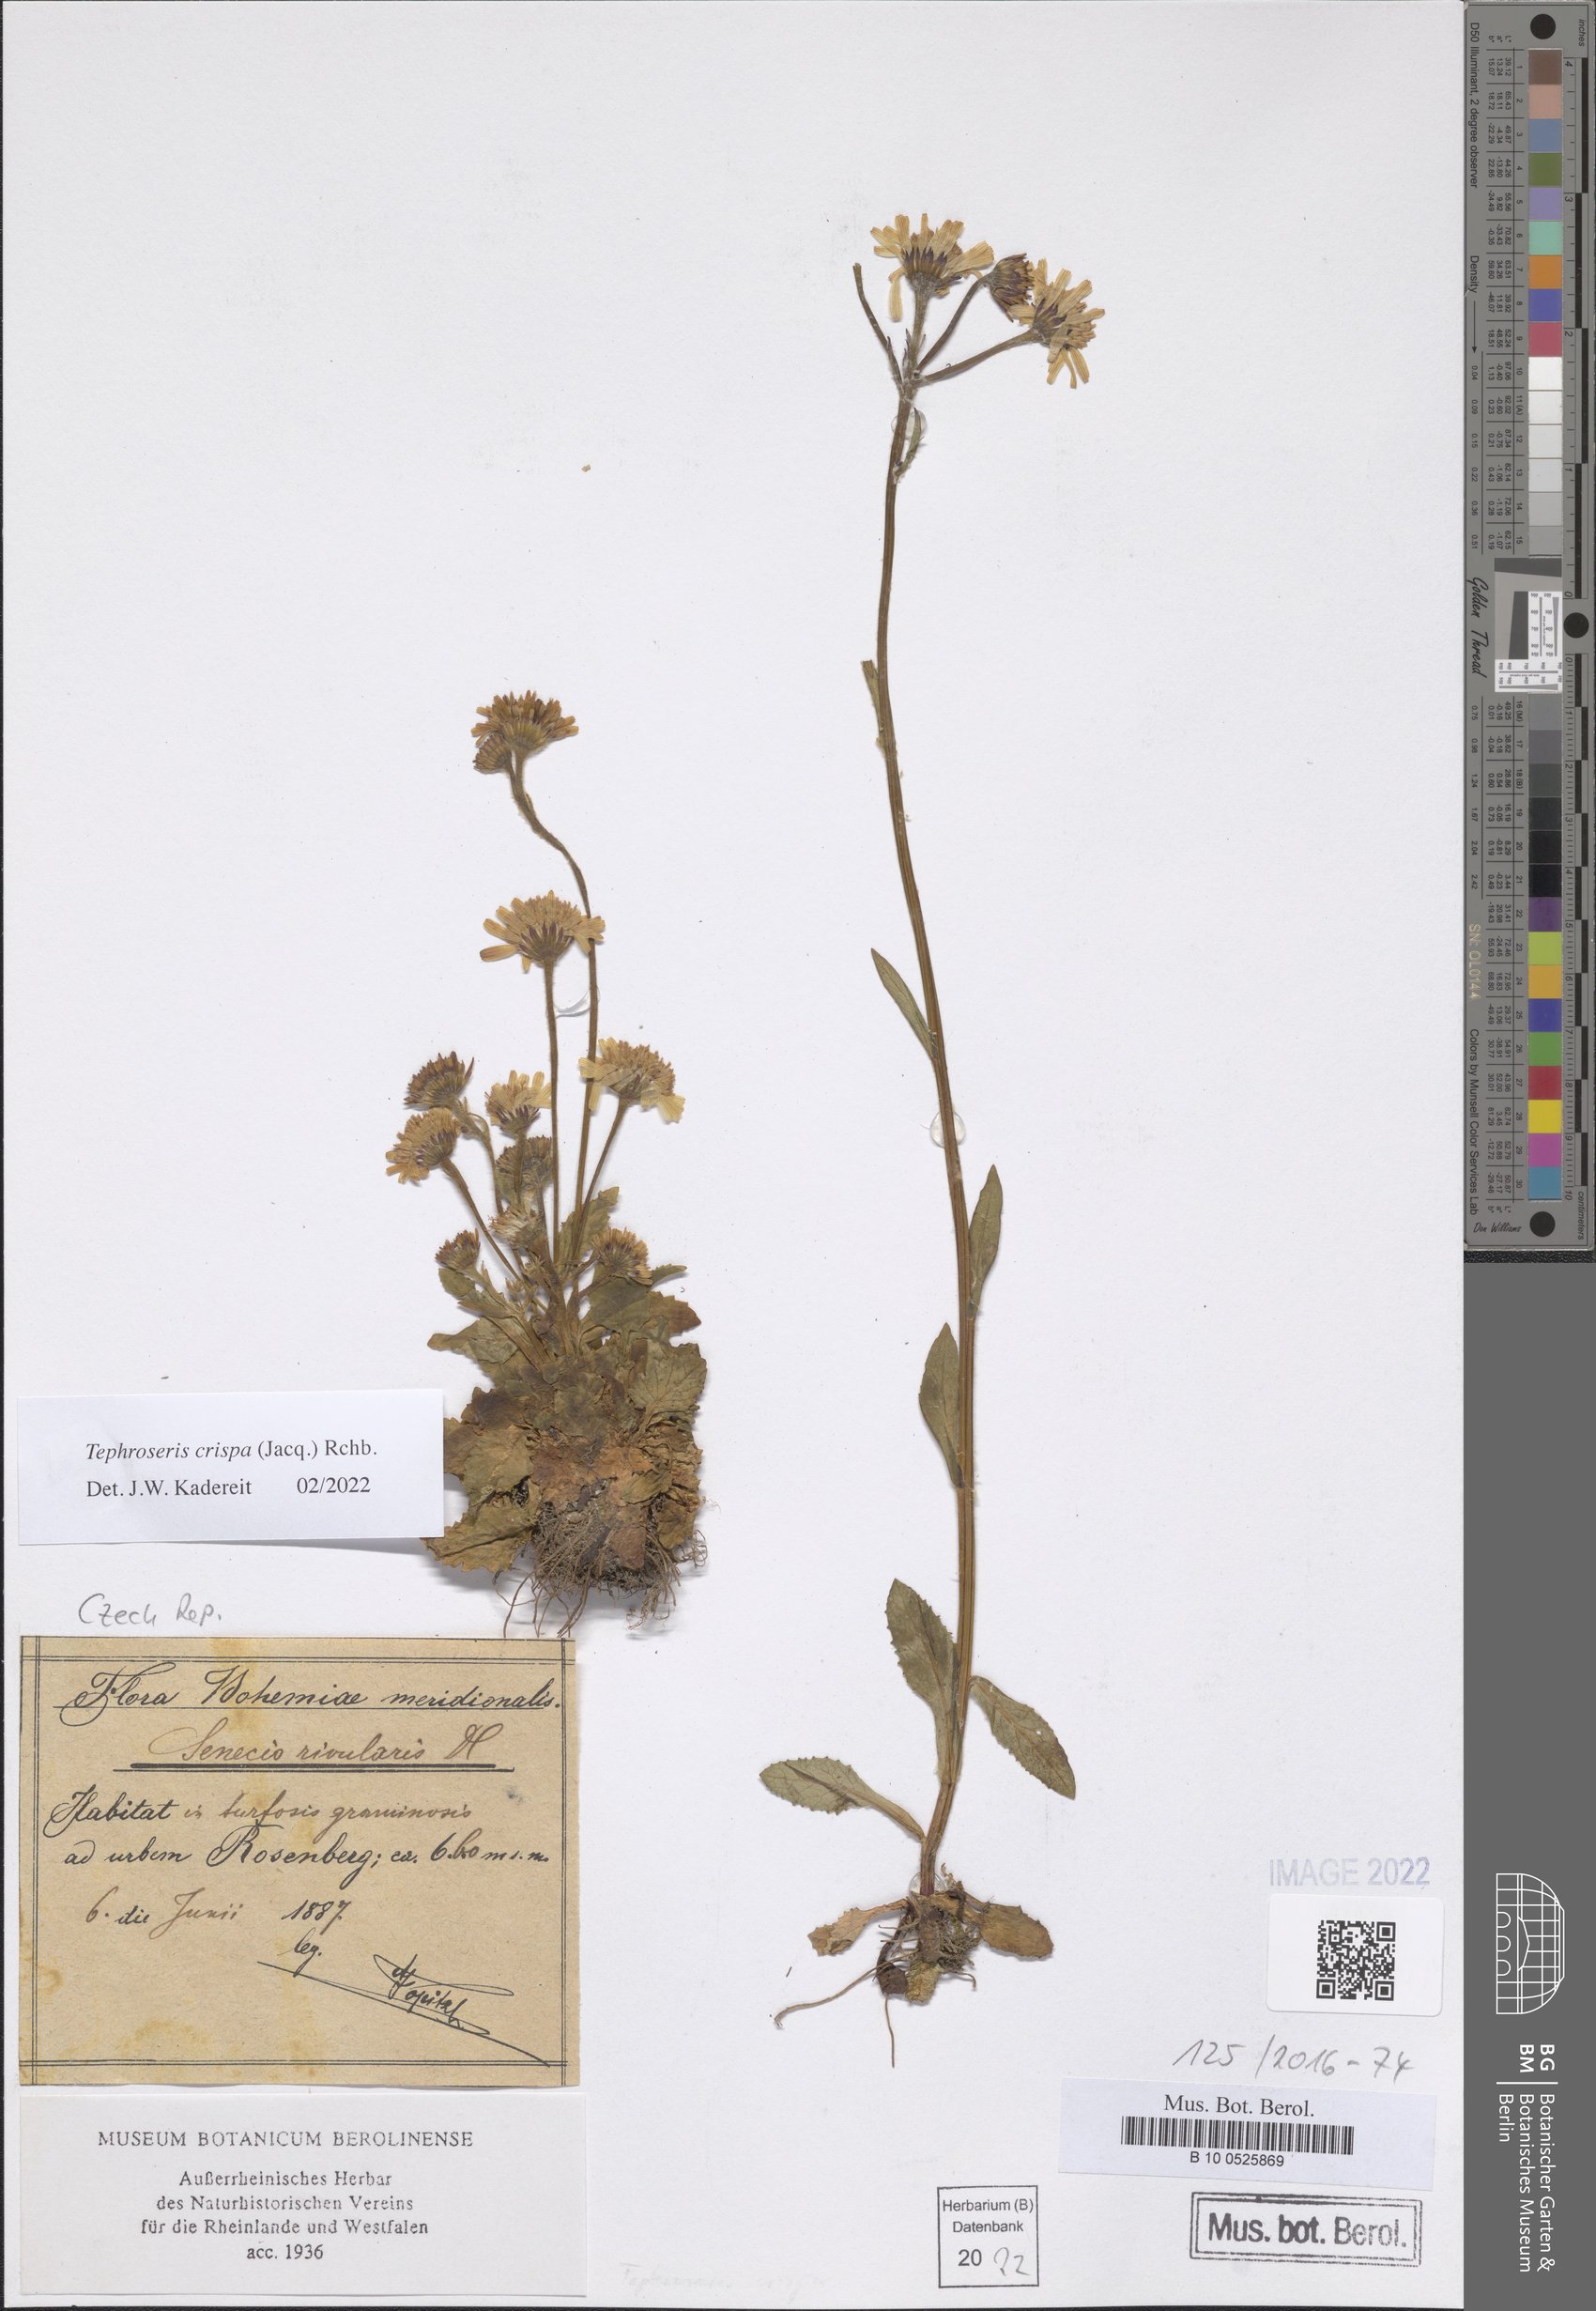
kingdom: Plantae
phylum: Tracheophyta
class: Magnoliopsida
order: Asterales
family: Asteraceae
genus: Tephroseris
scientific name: Tephroseris crispa
